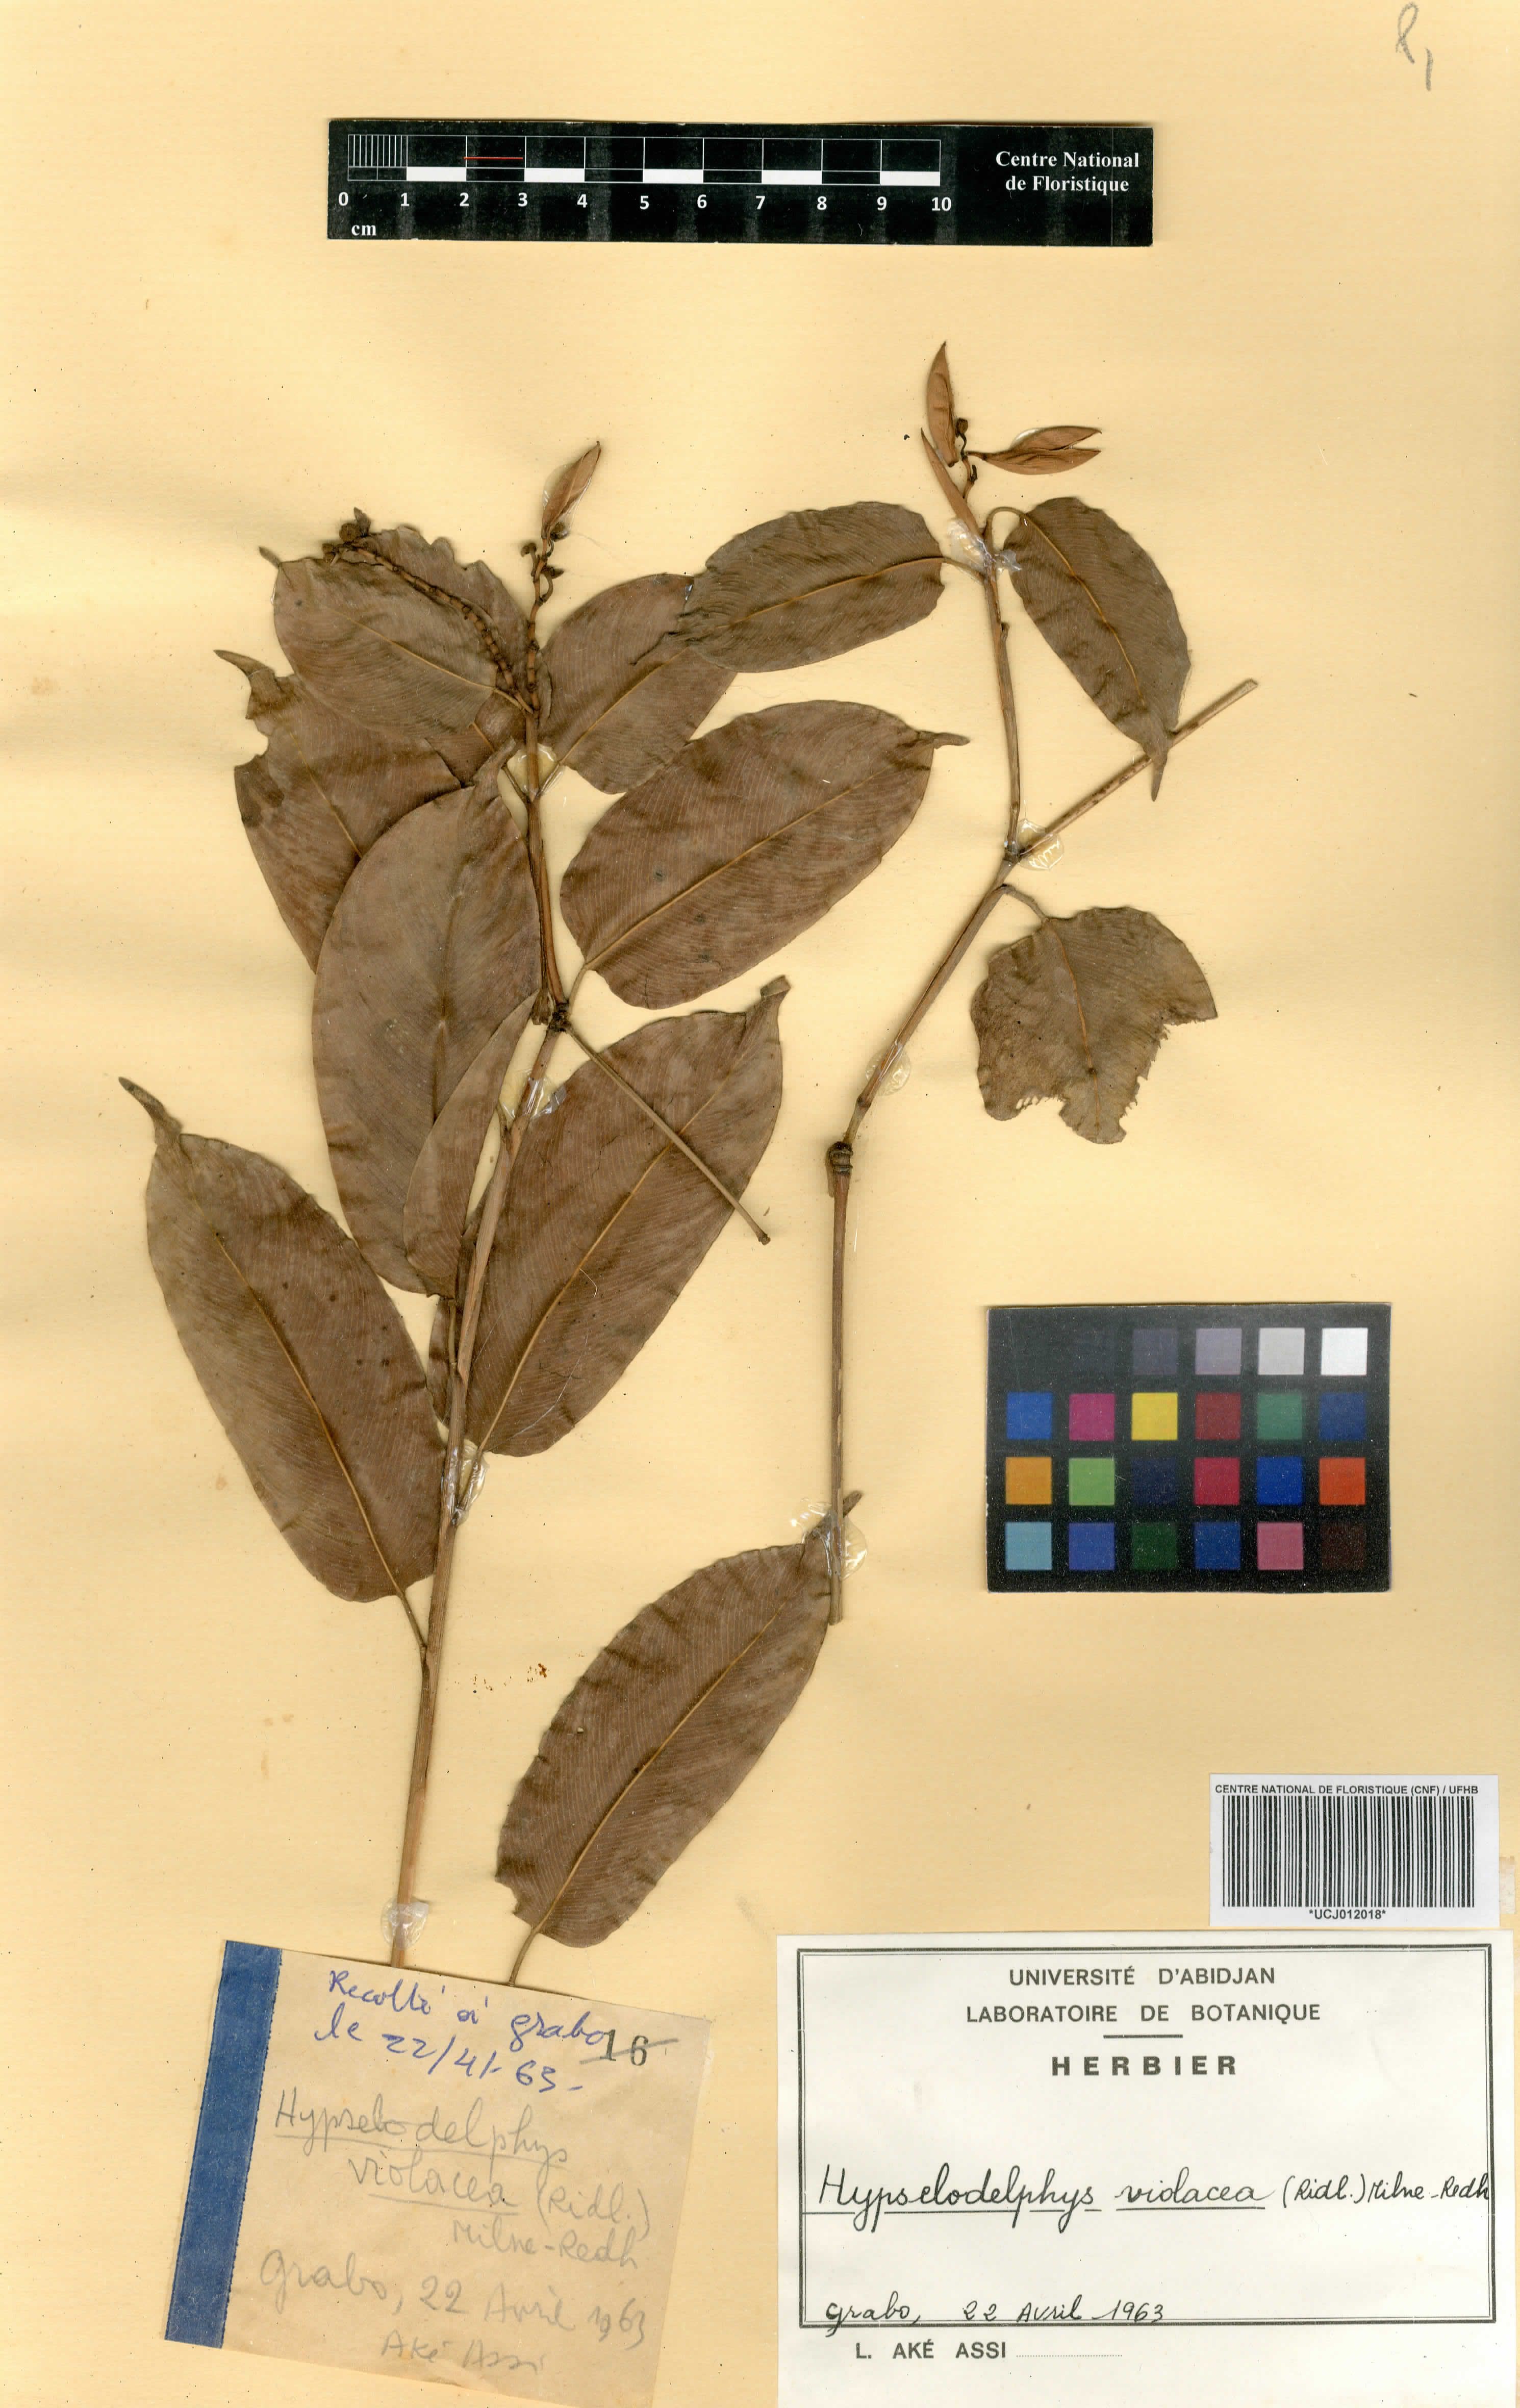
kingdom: Plantae
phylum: Tracheophyta
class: Liliopsida
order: Zingiberales
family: Marantaceae
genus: Hypselodelphys
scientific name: Hypselodelphys violacea
